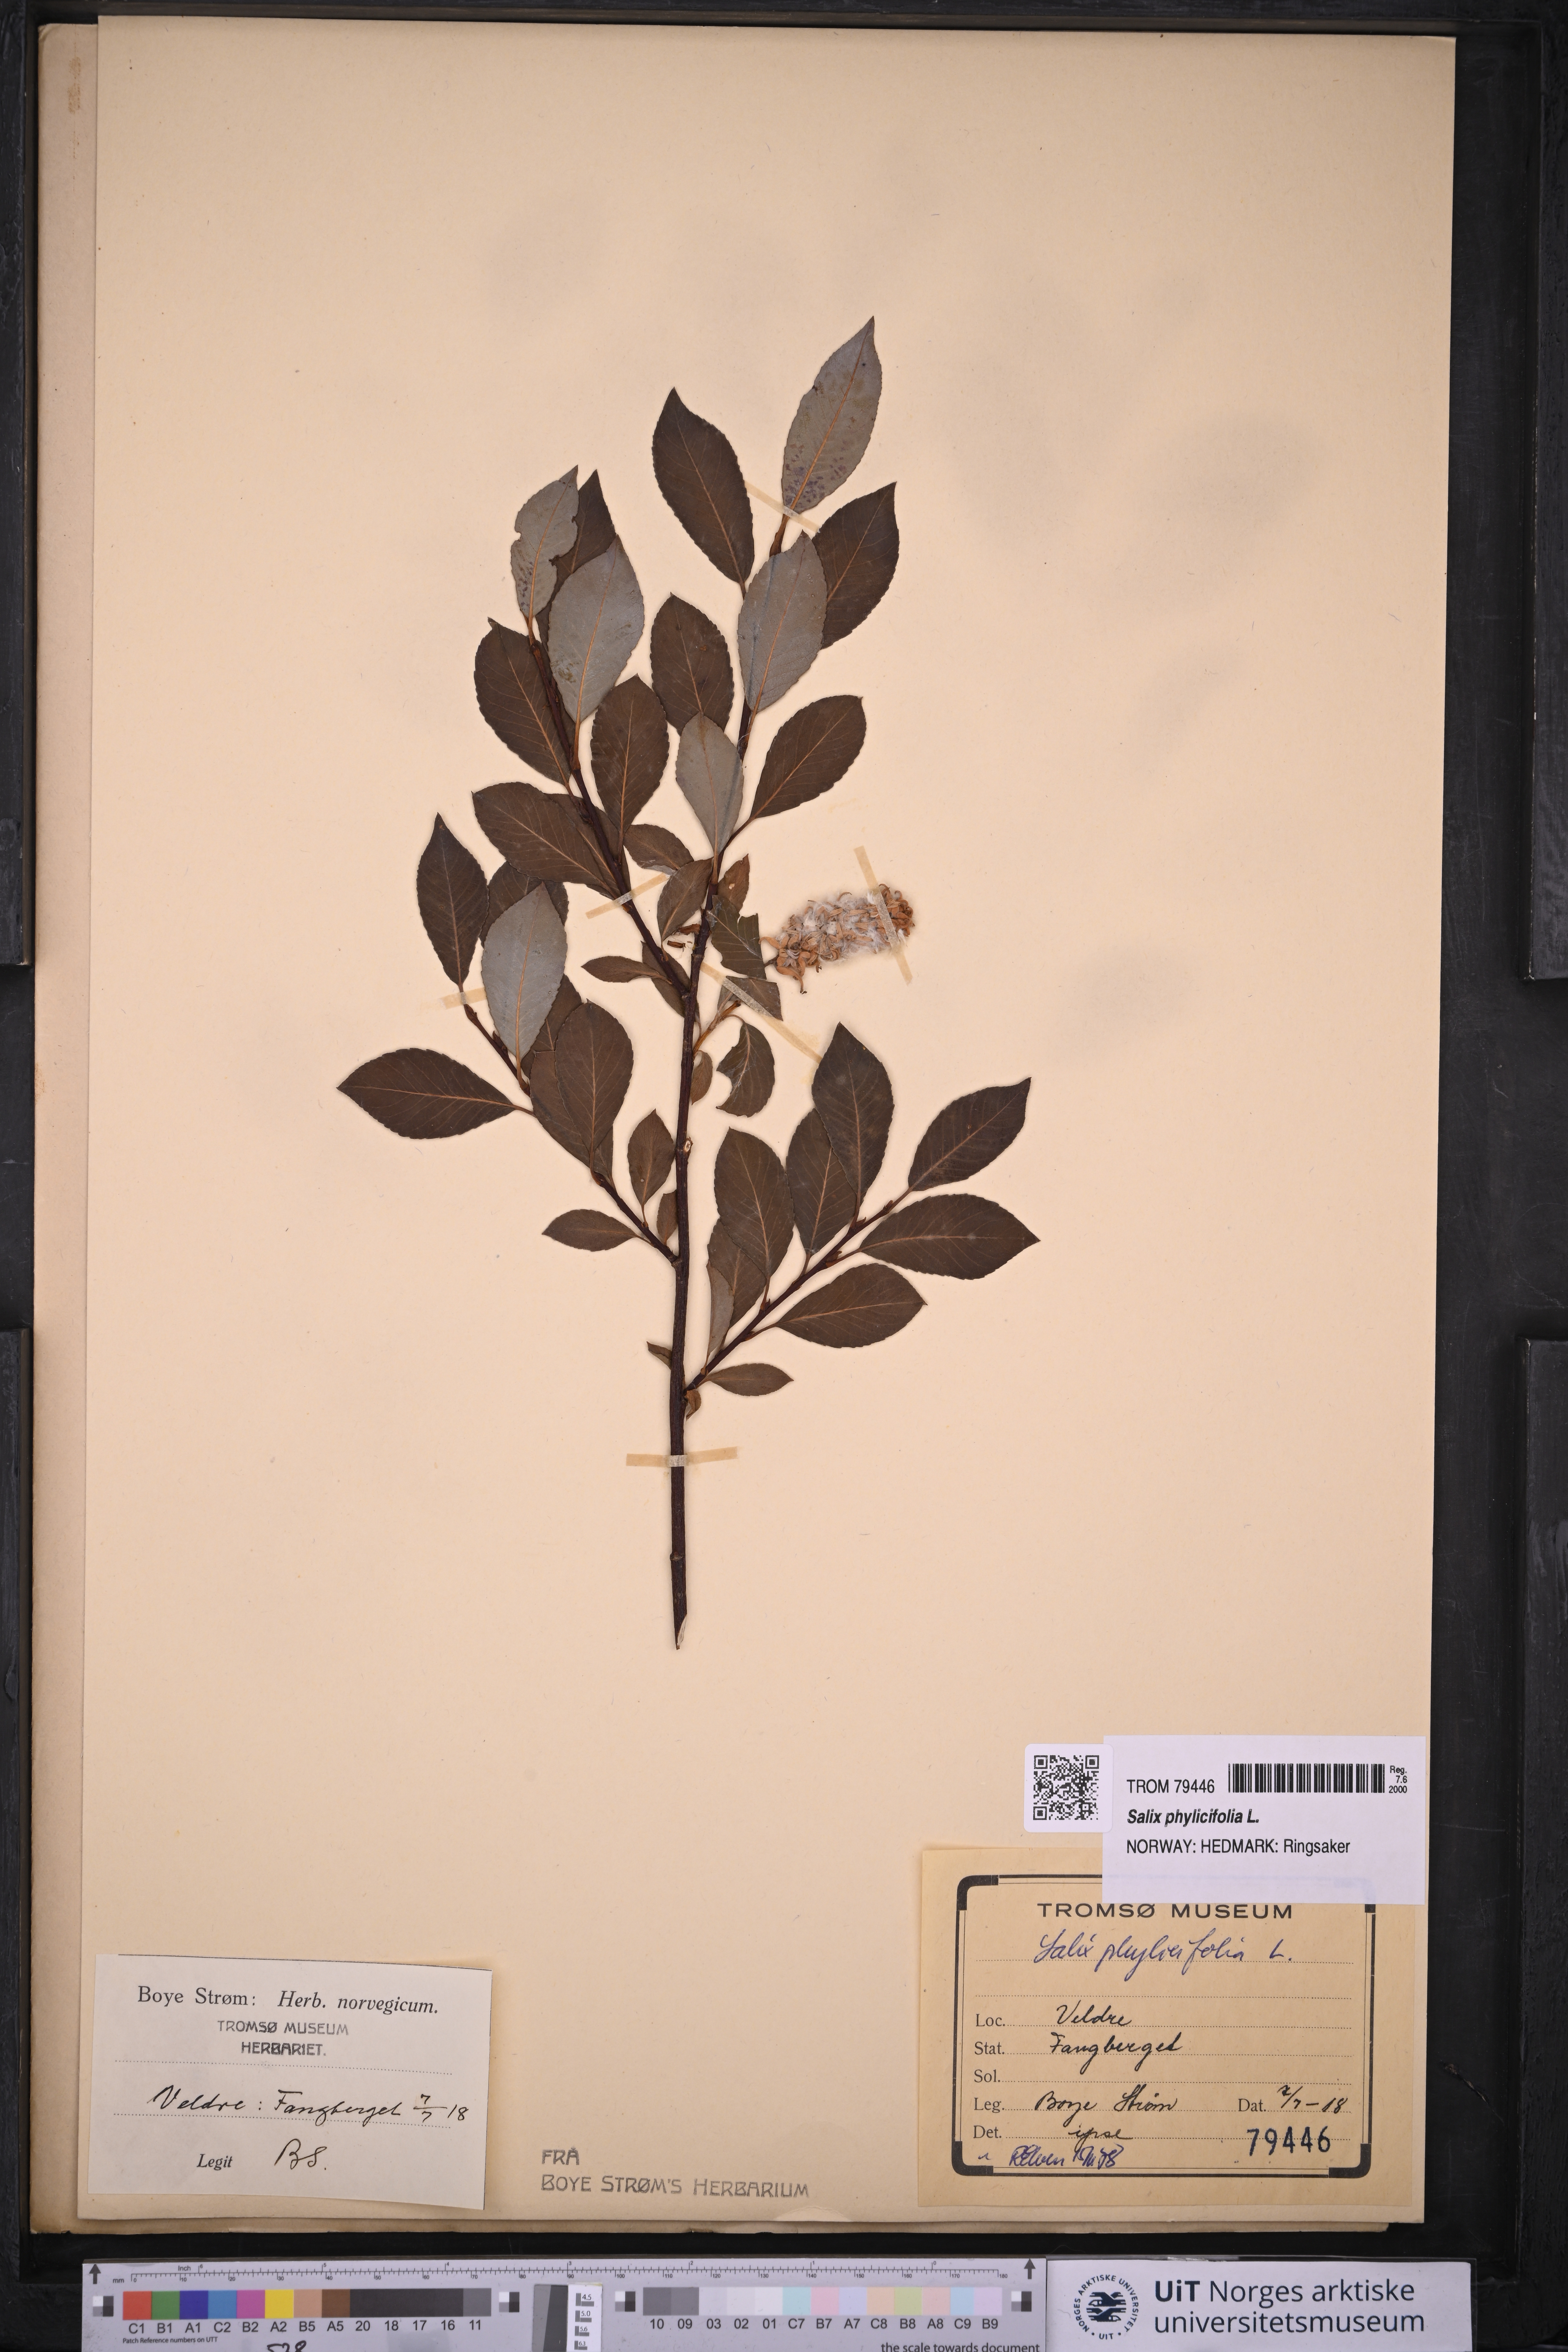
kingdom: Plantae
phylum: Tracheophyta
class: Magnoliopsida
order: Malpighiales
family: Salicaceae
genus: Salix
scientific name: Salix phylicifolia
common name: Tea-leaved willow
